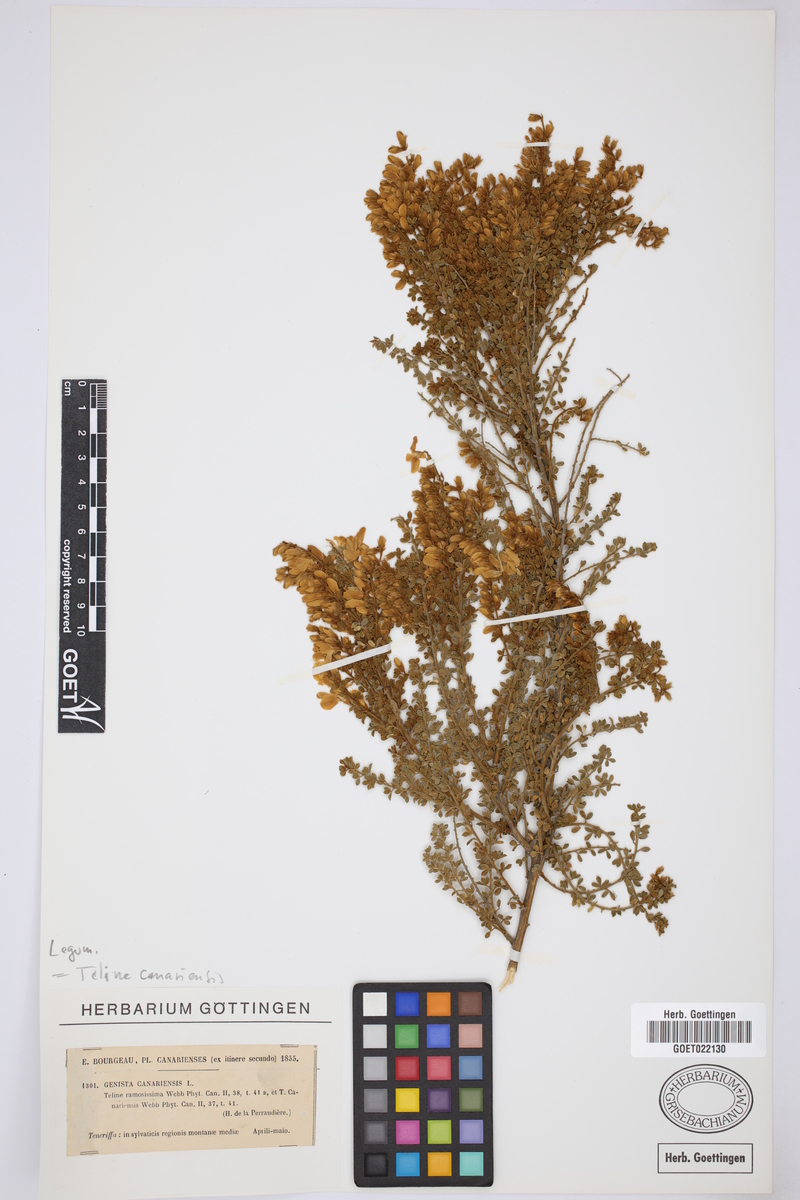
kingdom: Plantae
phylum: Tracheophyta
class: Magnoliopsida
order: Fabales
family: Fabaceae
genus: Genista
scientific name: Genista canariensis
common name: Canary broom
